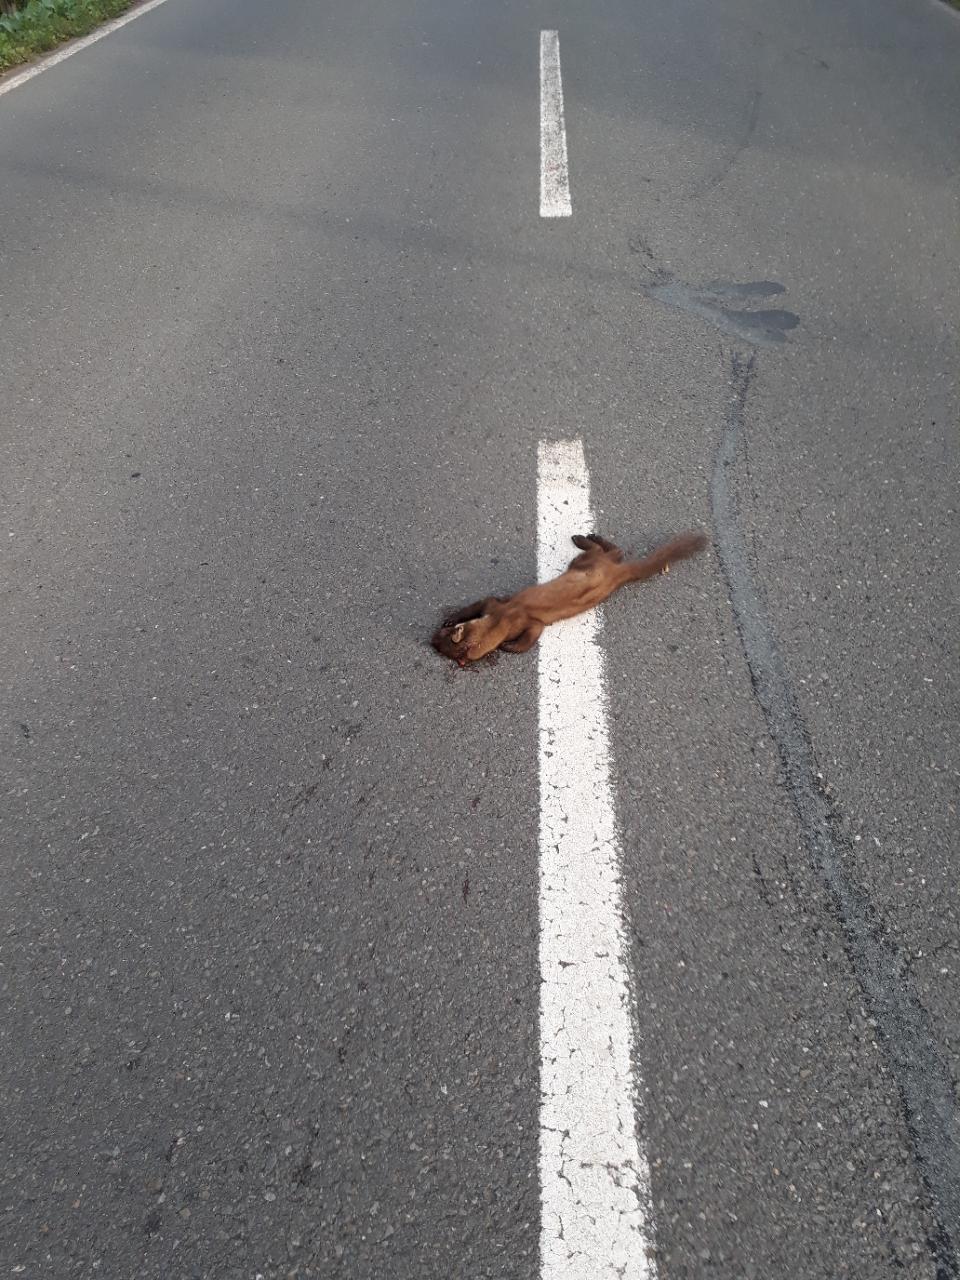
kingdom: Animalia
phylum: Chordata
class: Mammalia
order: Carnivora
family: Mustelidae
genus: Martes
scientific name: Martes
